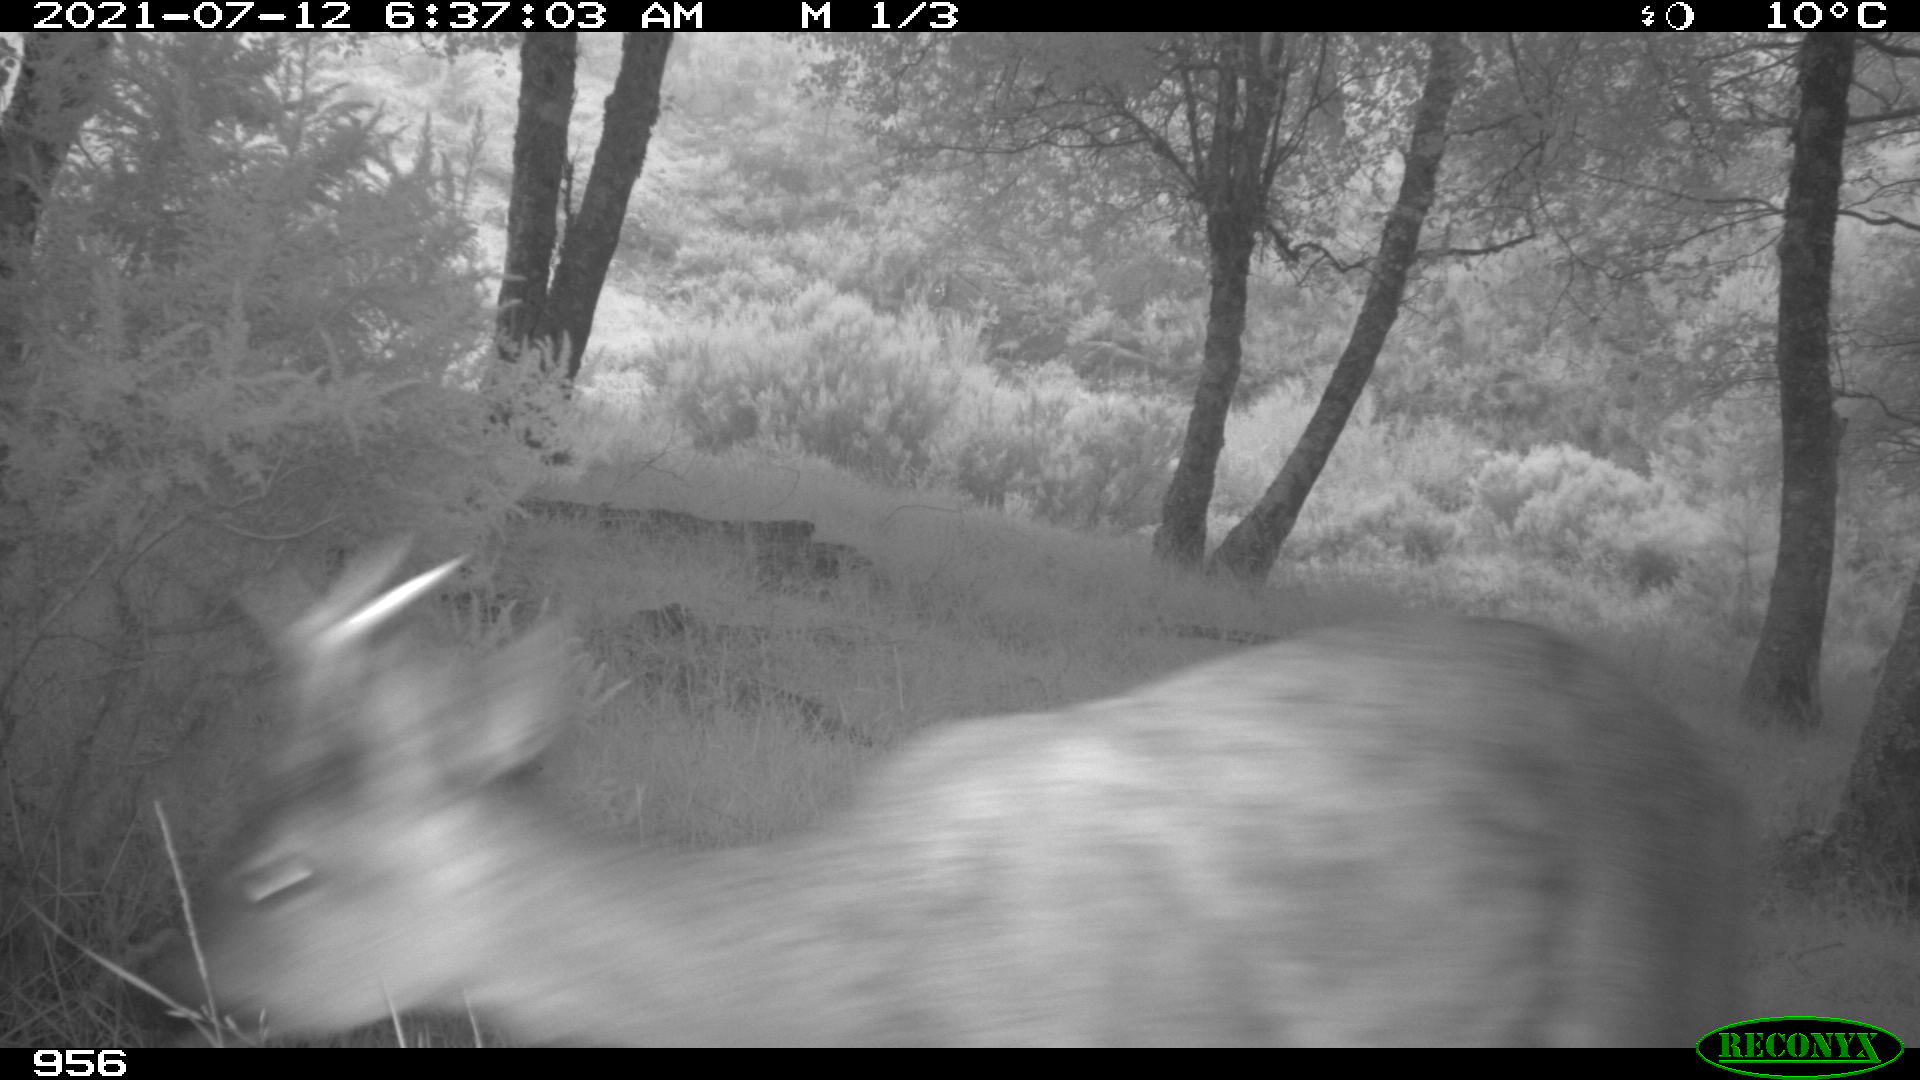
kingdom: Animalia
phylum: Chordata
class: Mammalia
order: Artiodactyla
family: Cervidae
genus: Capreolus
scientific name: Capreolus capreolus
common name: Western roe deer
